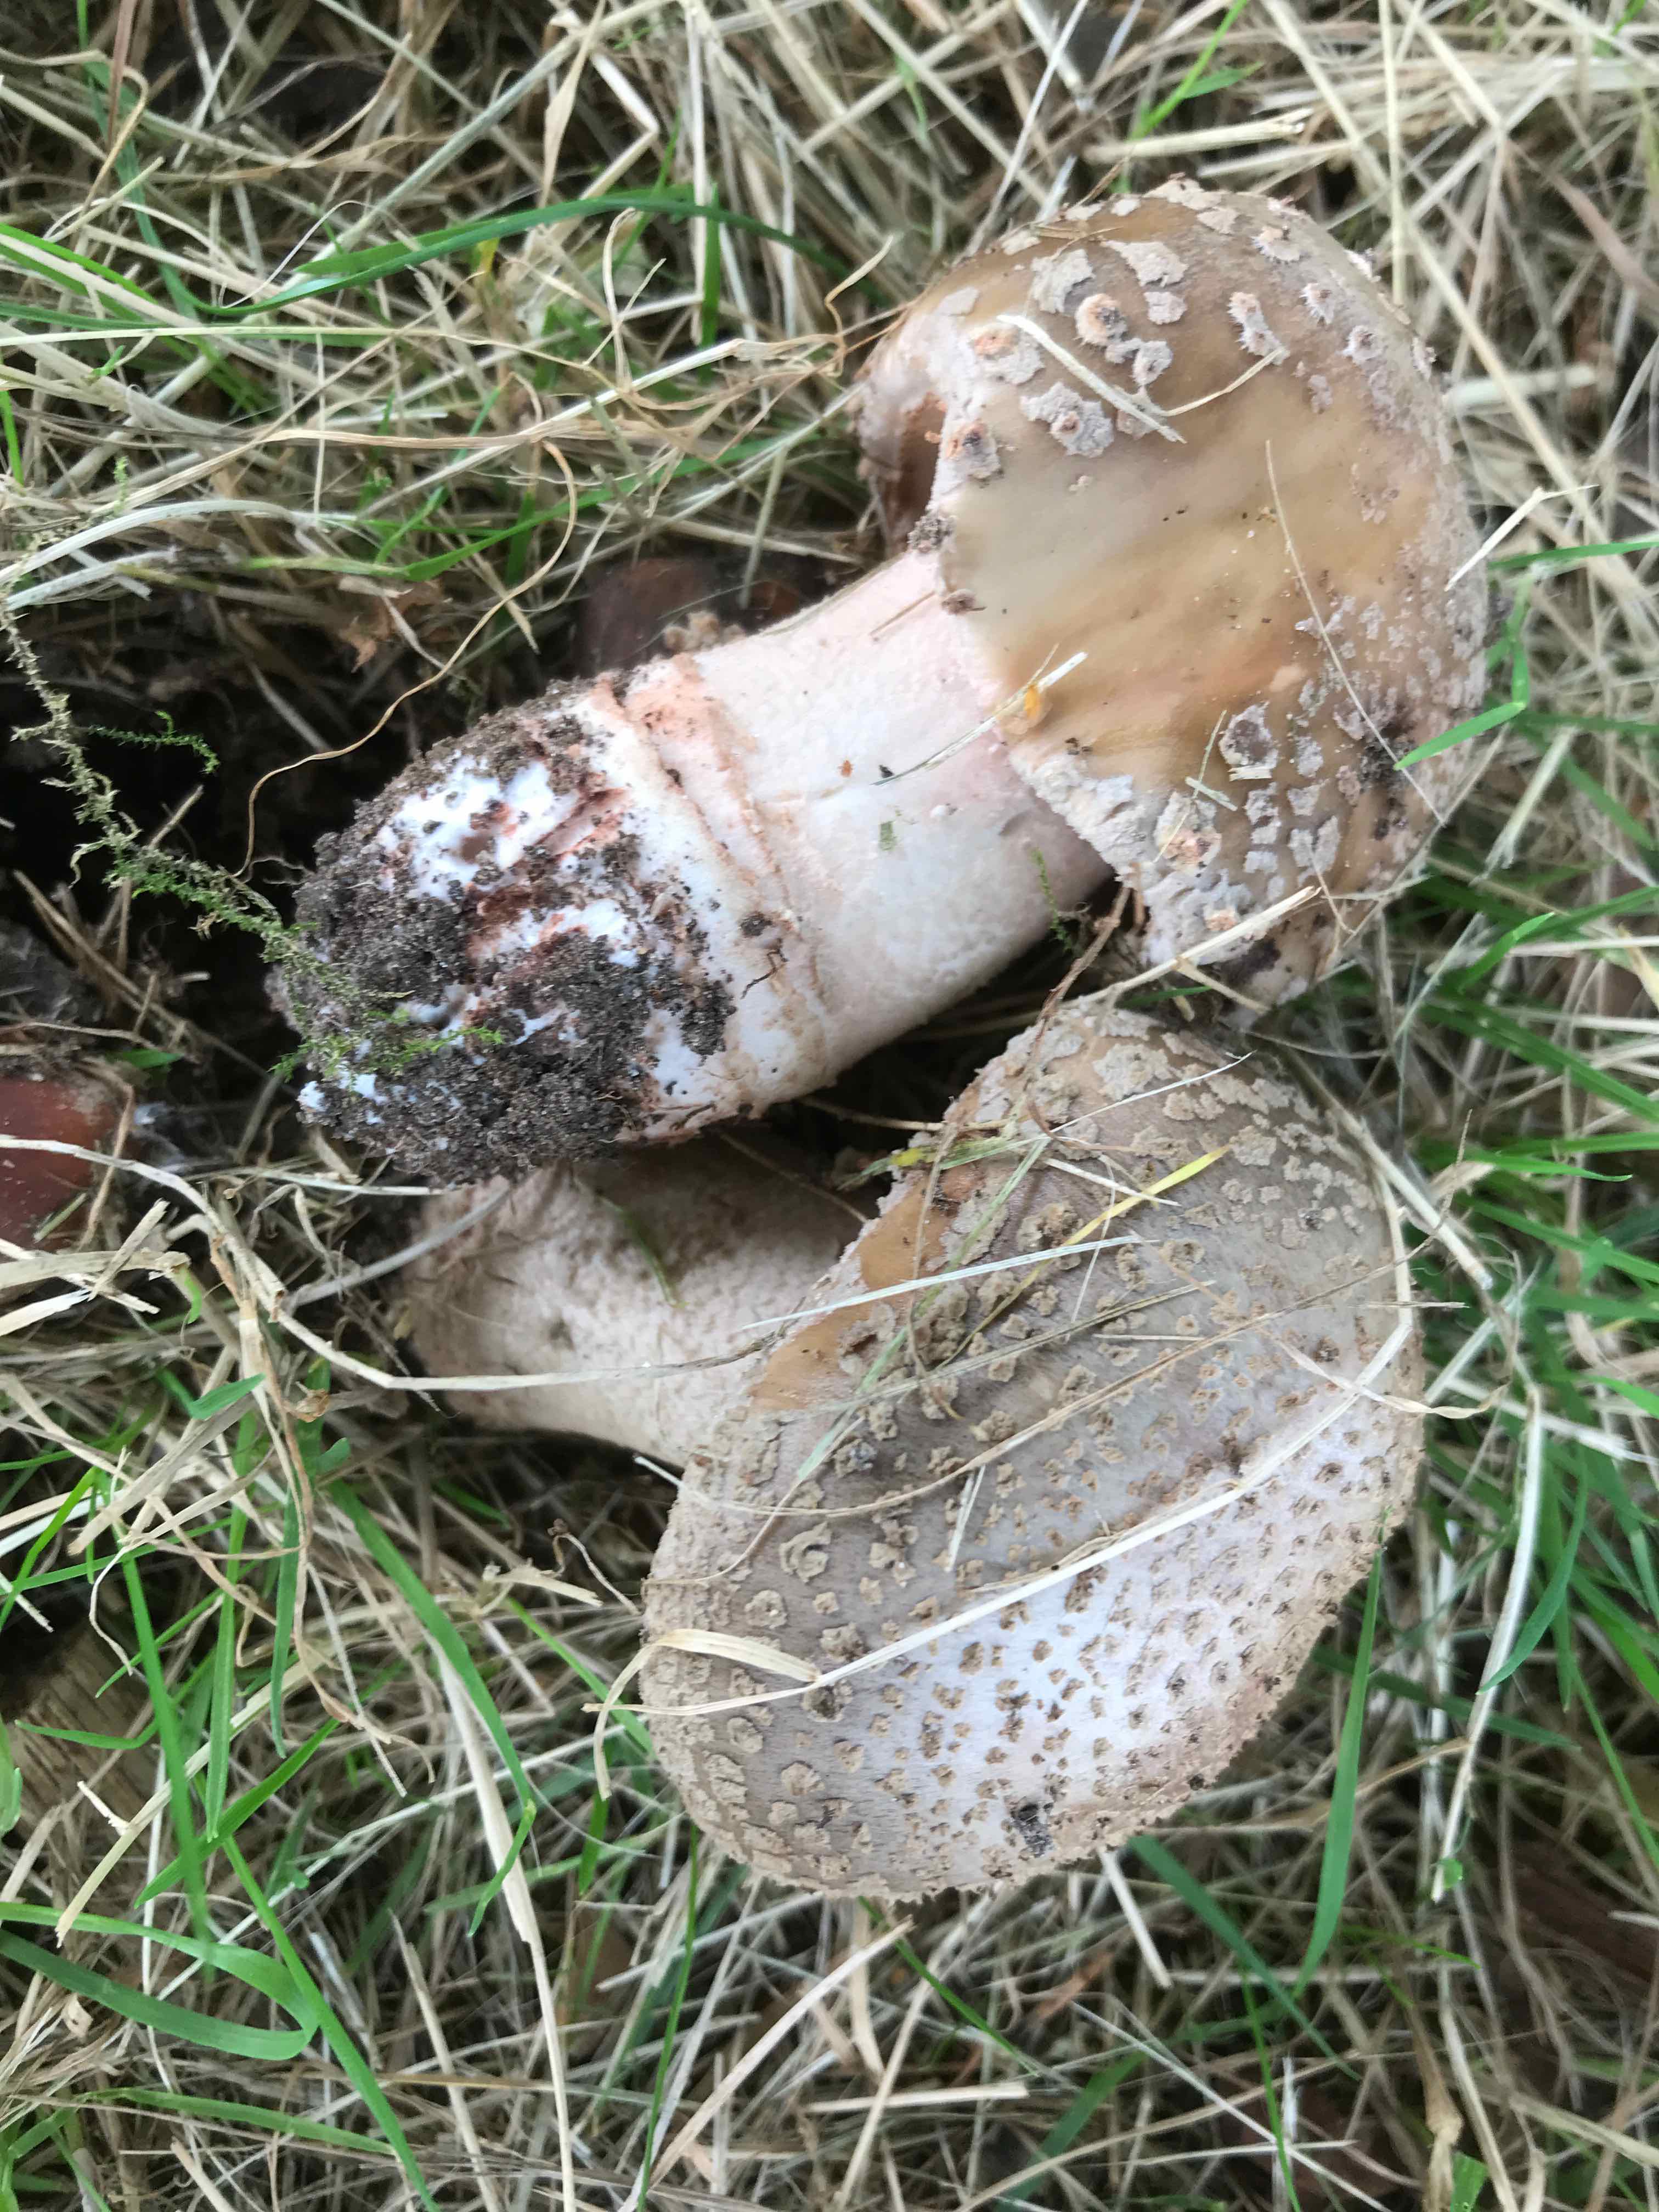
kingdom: Fungi
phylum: Basidiomycota
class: Agaricomycetes
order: Agaricales
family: Amanitaceae
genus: Amanita
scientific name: Amanita rubescens
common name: rødmende fluesvamp
